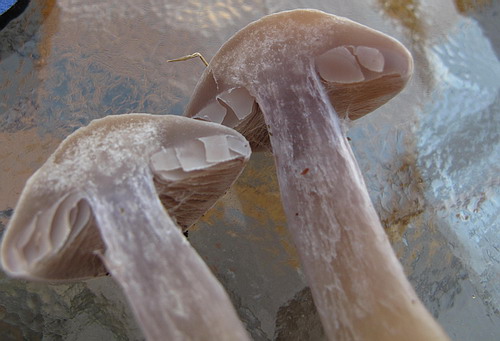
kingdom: Fungi
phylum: Basidiomycota
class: Agaricomycetes
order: Agaricales
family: Cortinariaceae
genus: Cortinarius
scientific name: Cortinarius alboviolaceus
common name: lysviolet slørhat
